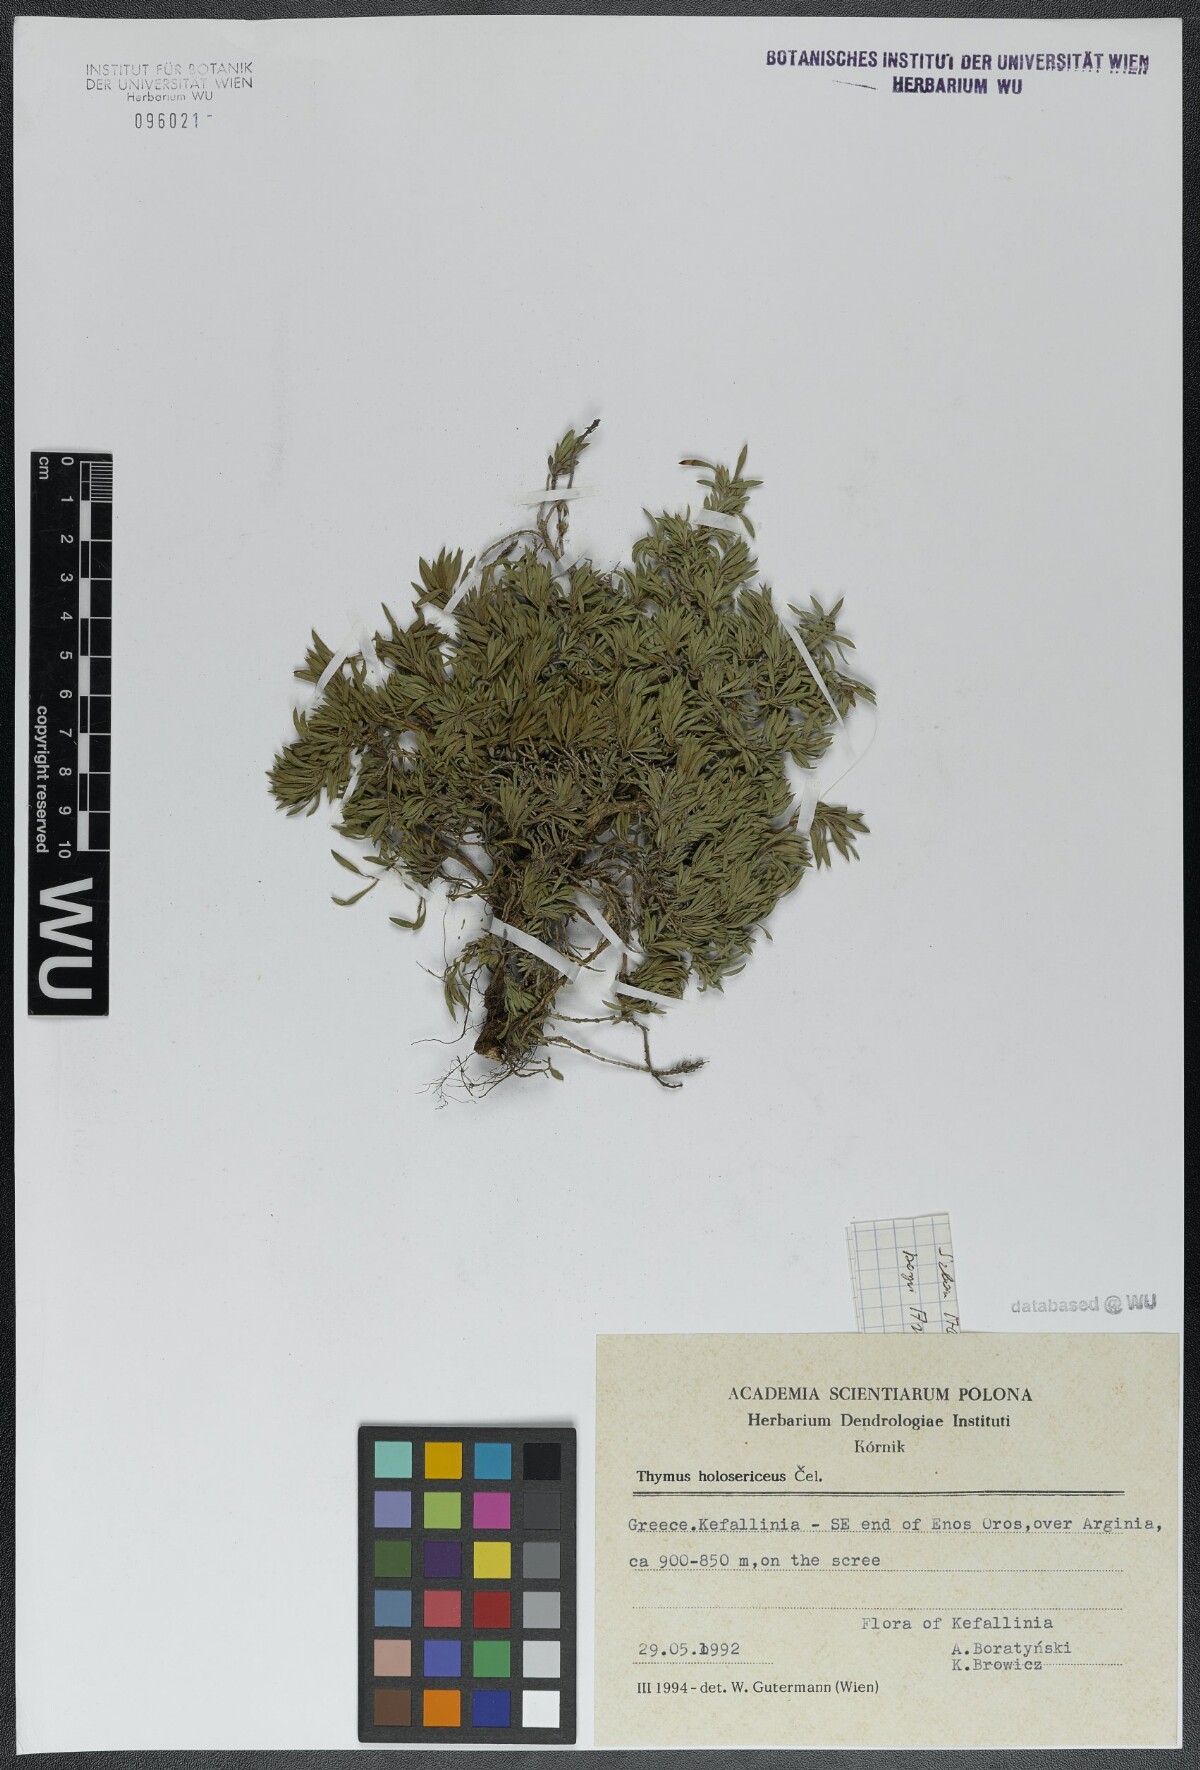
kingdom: Plantae
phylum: Tracheophyta
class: Magnoliopsida
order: Lamiales
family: Lamiaceae
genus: Thymus
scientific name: Thymus holosericeus
